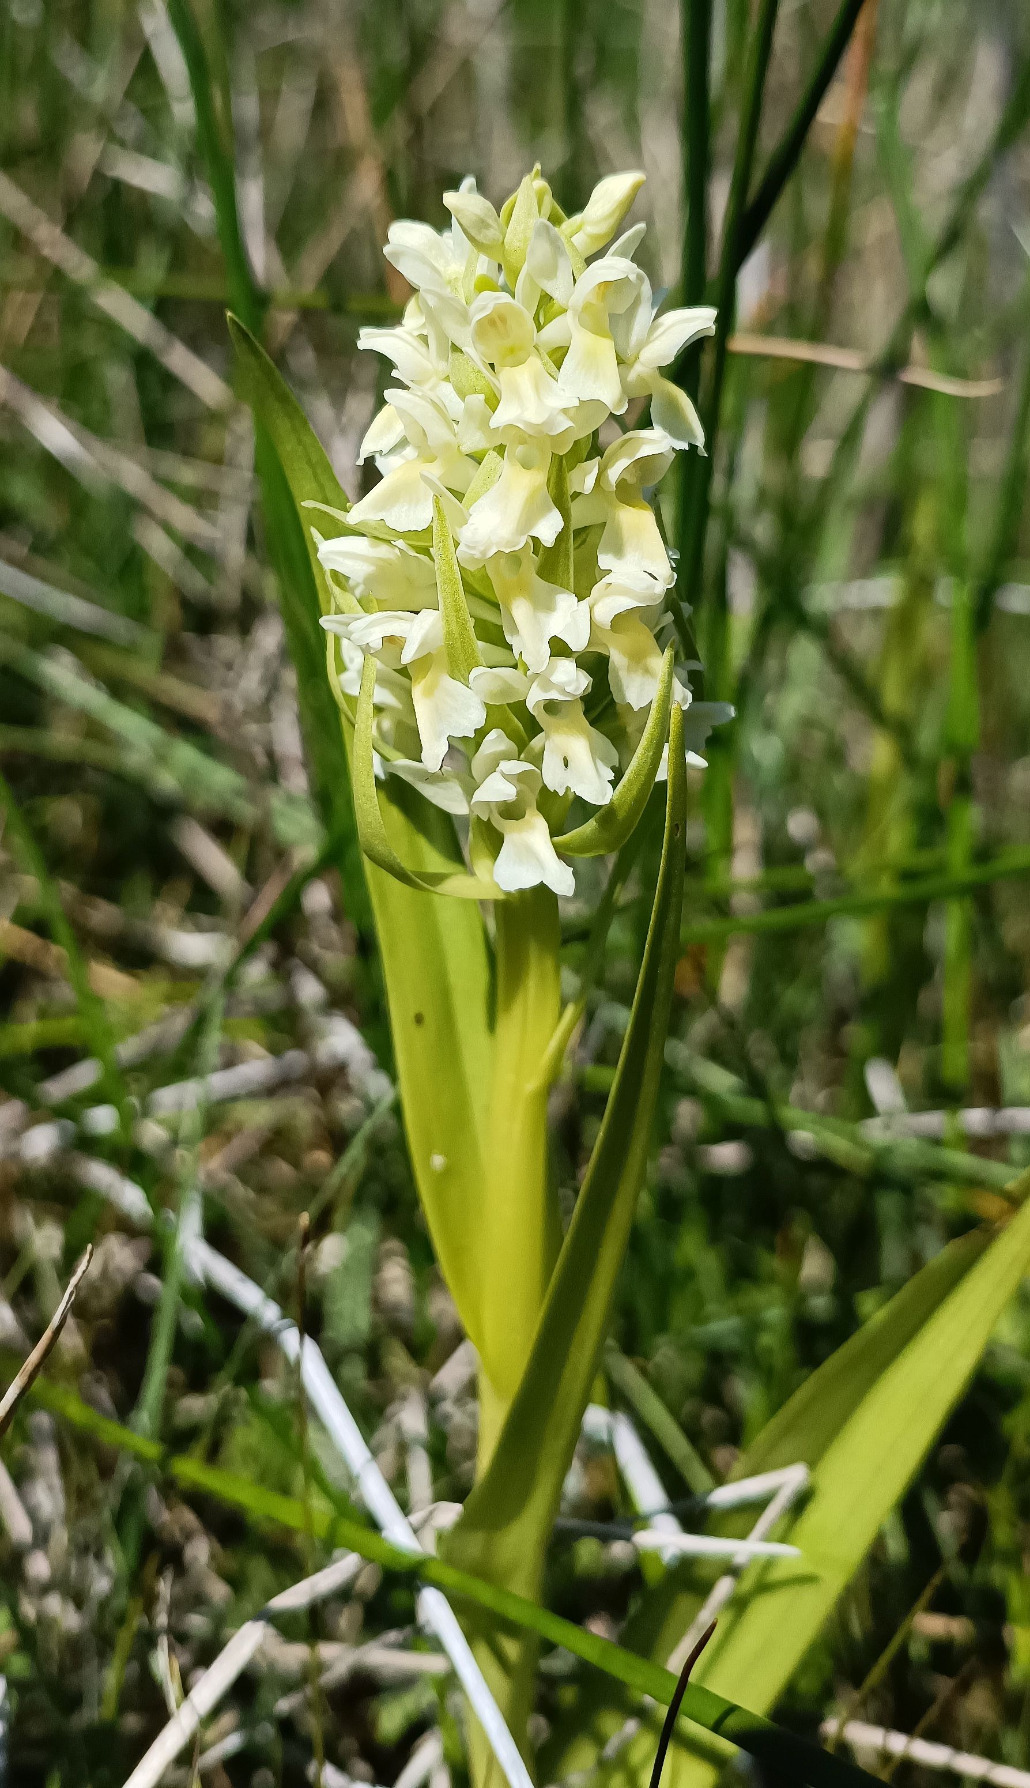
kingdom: Plantae
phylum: Tracheophyta
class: Liliopsida
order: Asparagales
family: Orchidaceae
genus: Dactylorhiza
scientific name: Dactylorhiza incarnata
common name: Hvidgul gøgeurt
